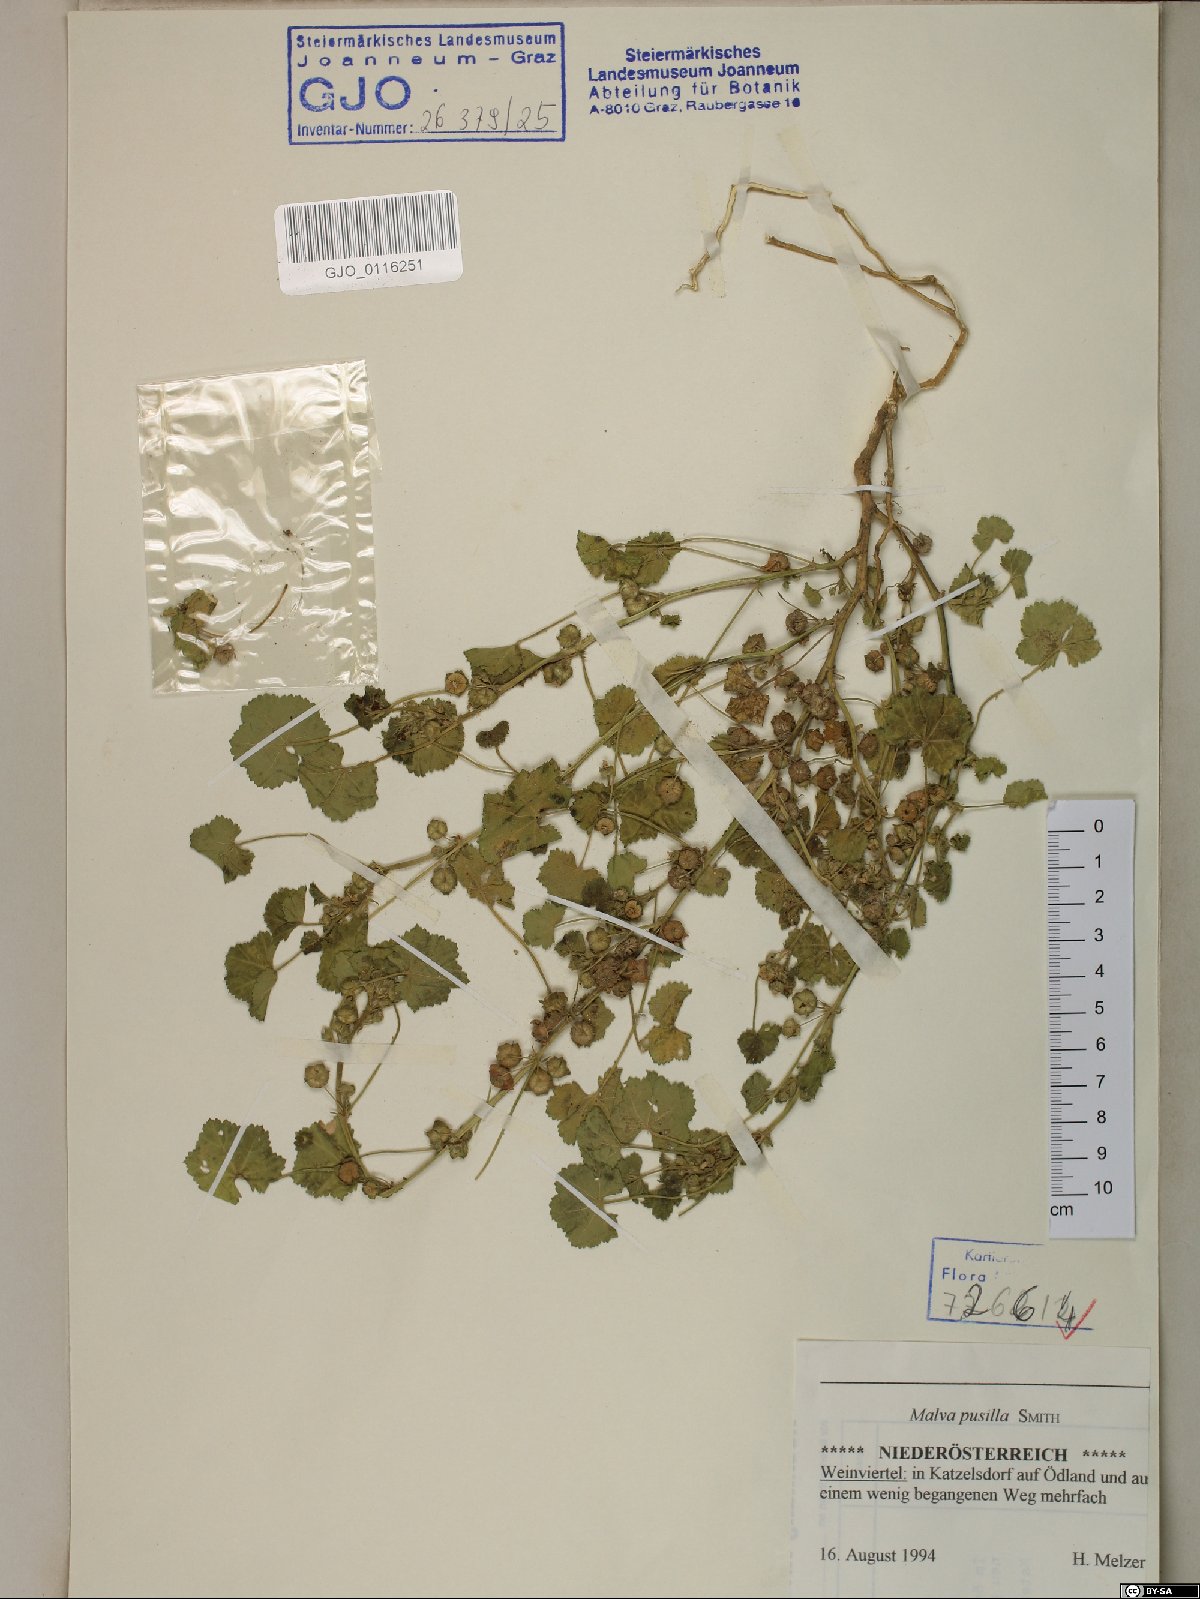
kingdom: Plantae
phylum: Tracheophyta
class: Magnoliopsida
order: Malvales
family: Malvaceae
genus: Malva
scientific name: Malva pusilla
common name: Small mallow
